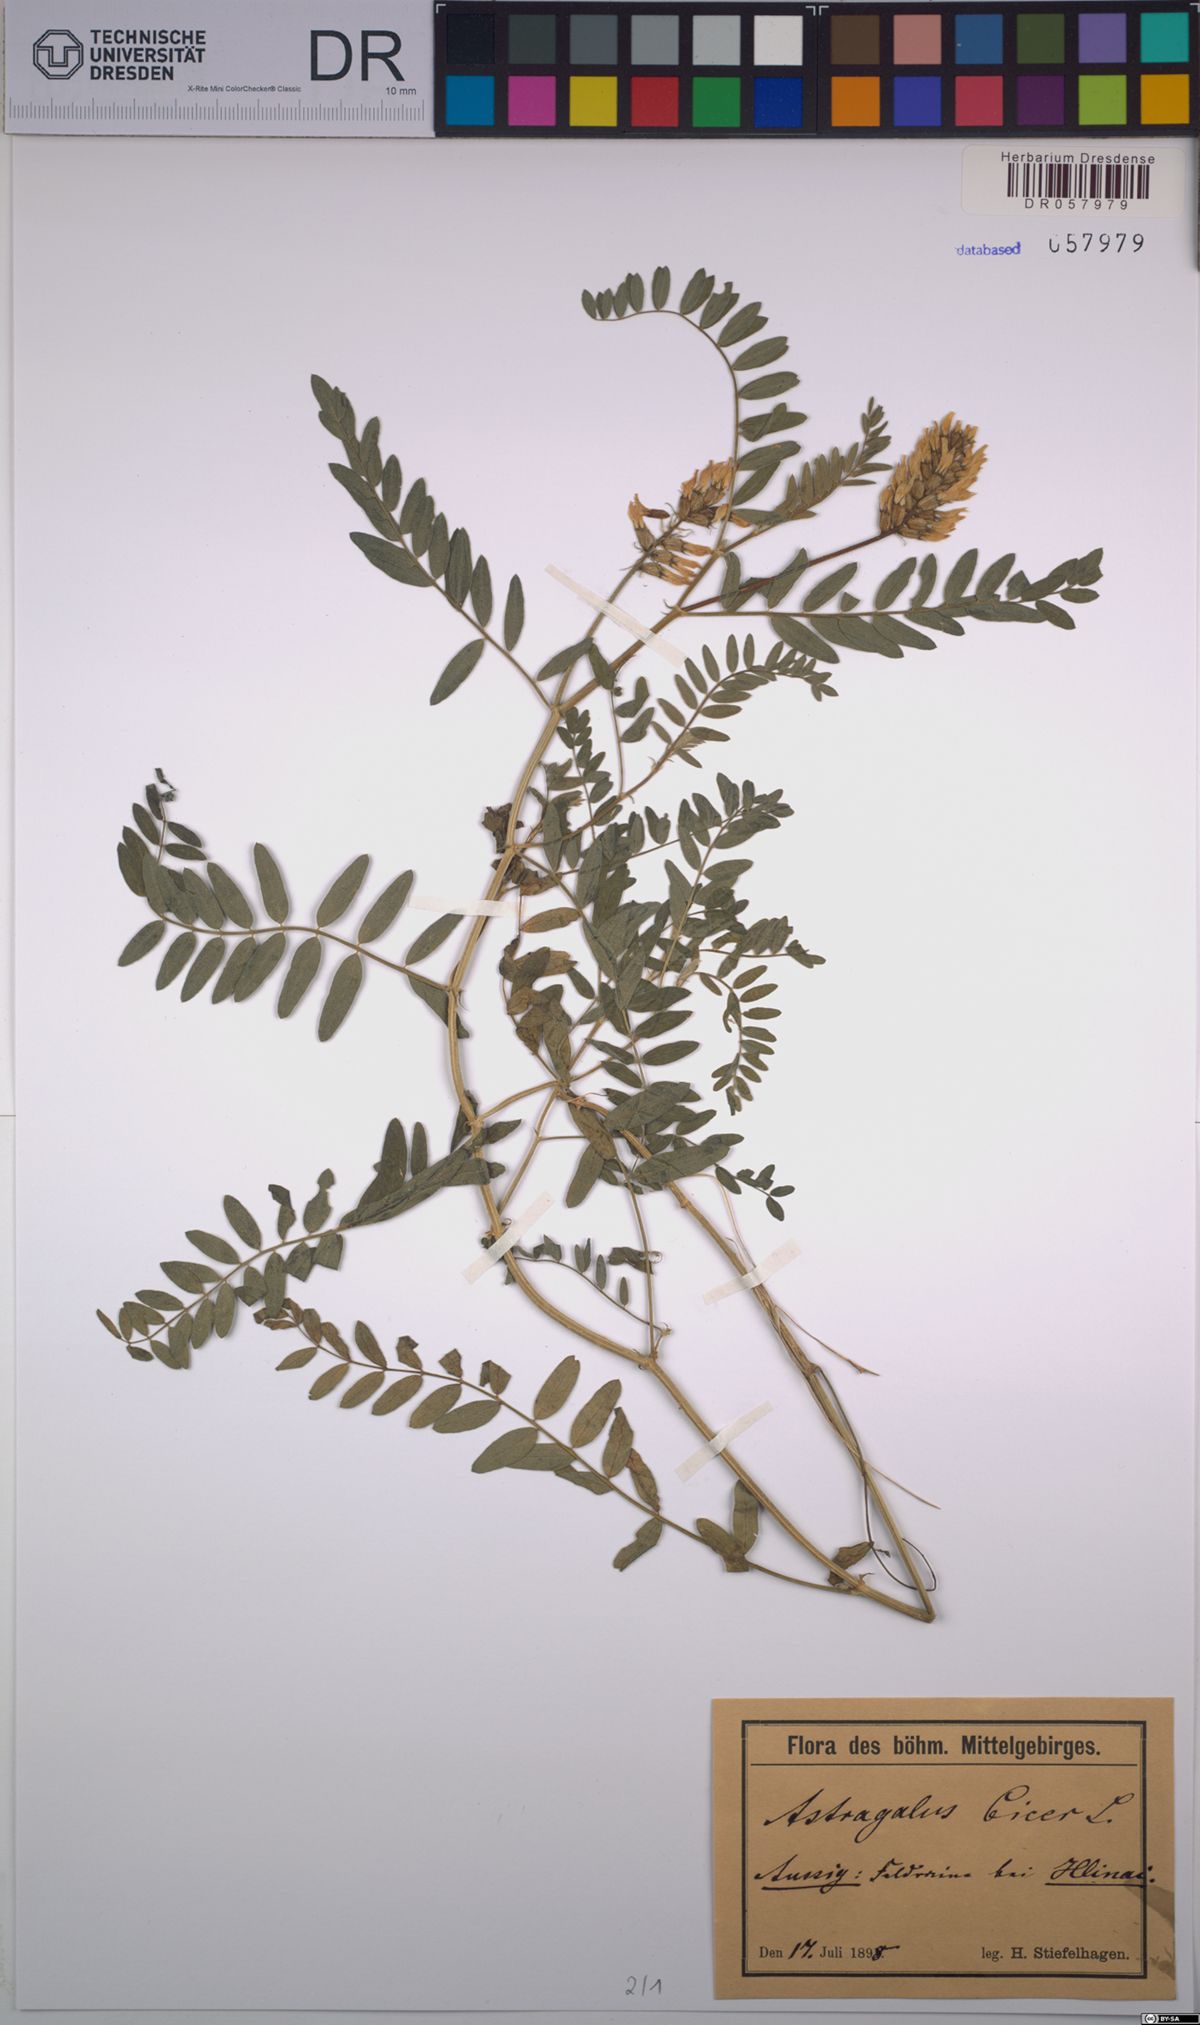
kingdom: Plantae
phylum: Tracheophyta
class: Magnoliopsida
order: Fabales
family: Fabaceae
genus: Astragalus
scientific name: Astragalus cicer
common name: Chick-pea milk-vetch
